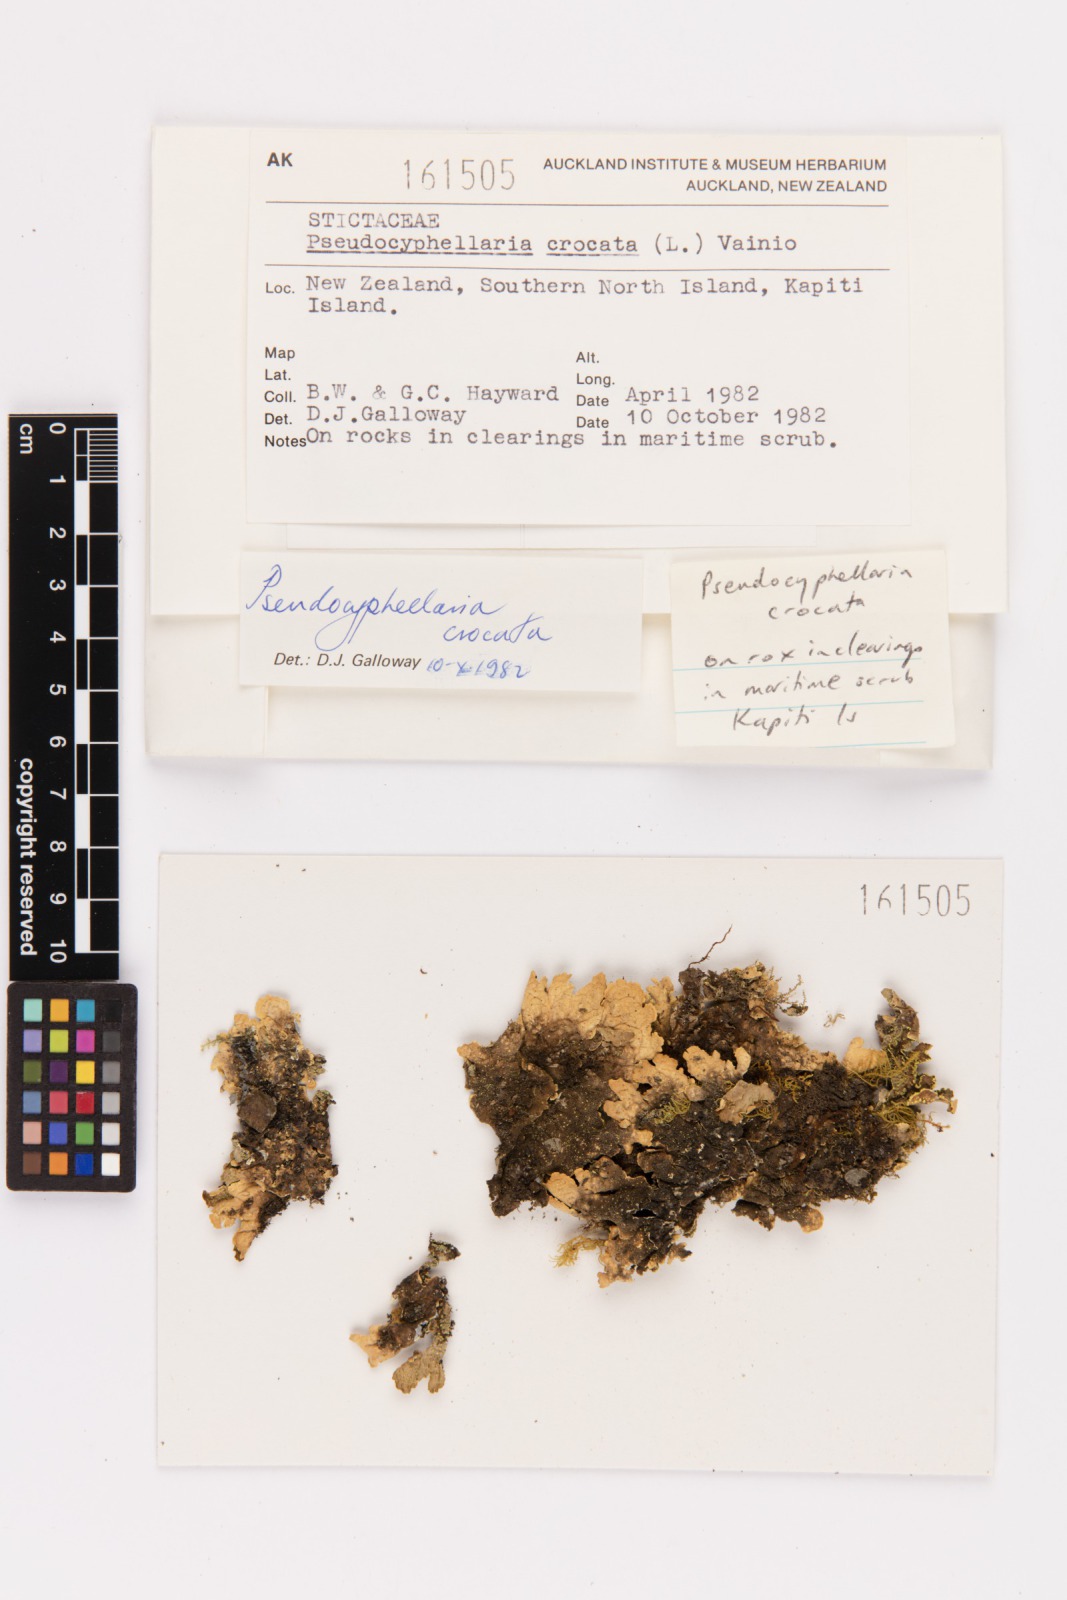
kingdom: Fungi
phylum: Ascomycota
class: Lecanoromycetes
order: Peltigerales
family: Lobariaceae
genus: Pseudocyphellaria
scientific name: Pseudocyphellaria crocata
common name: Golden specklebelly
